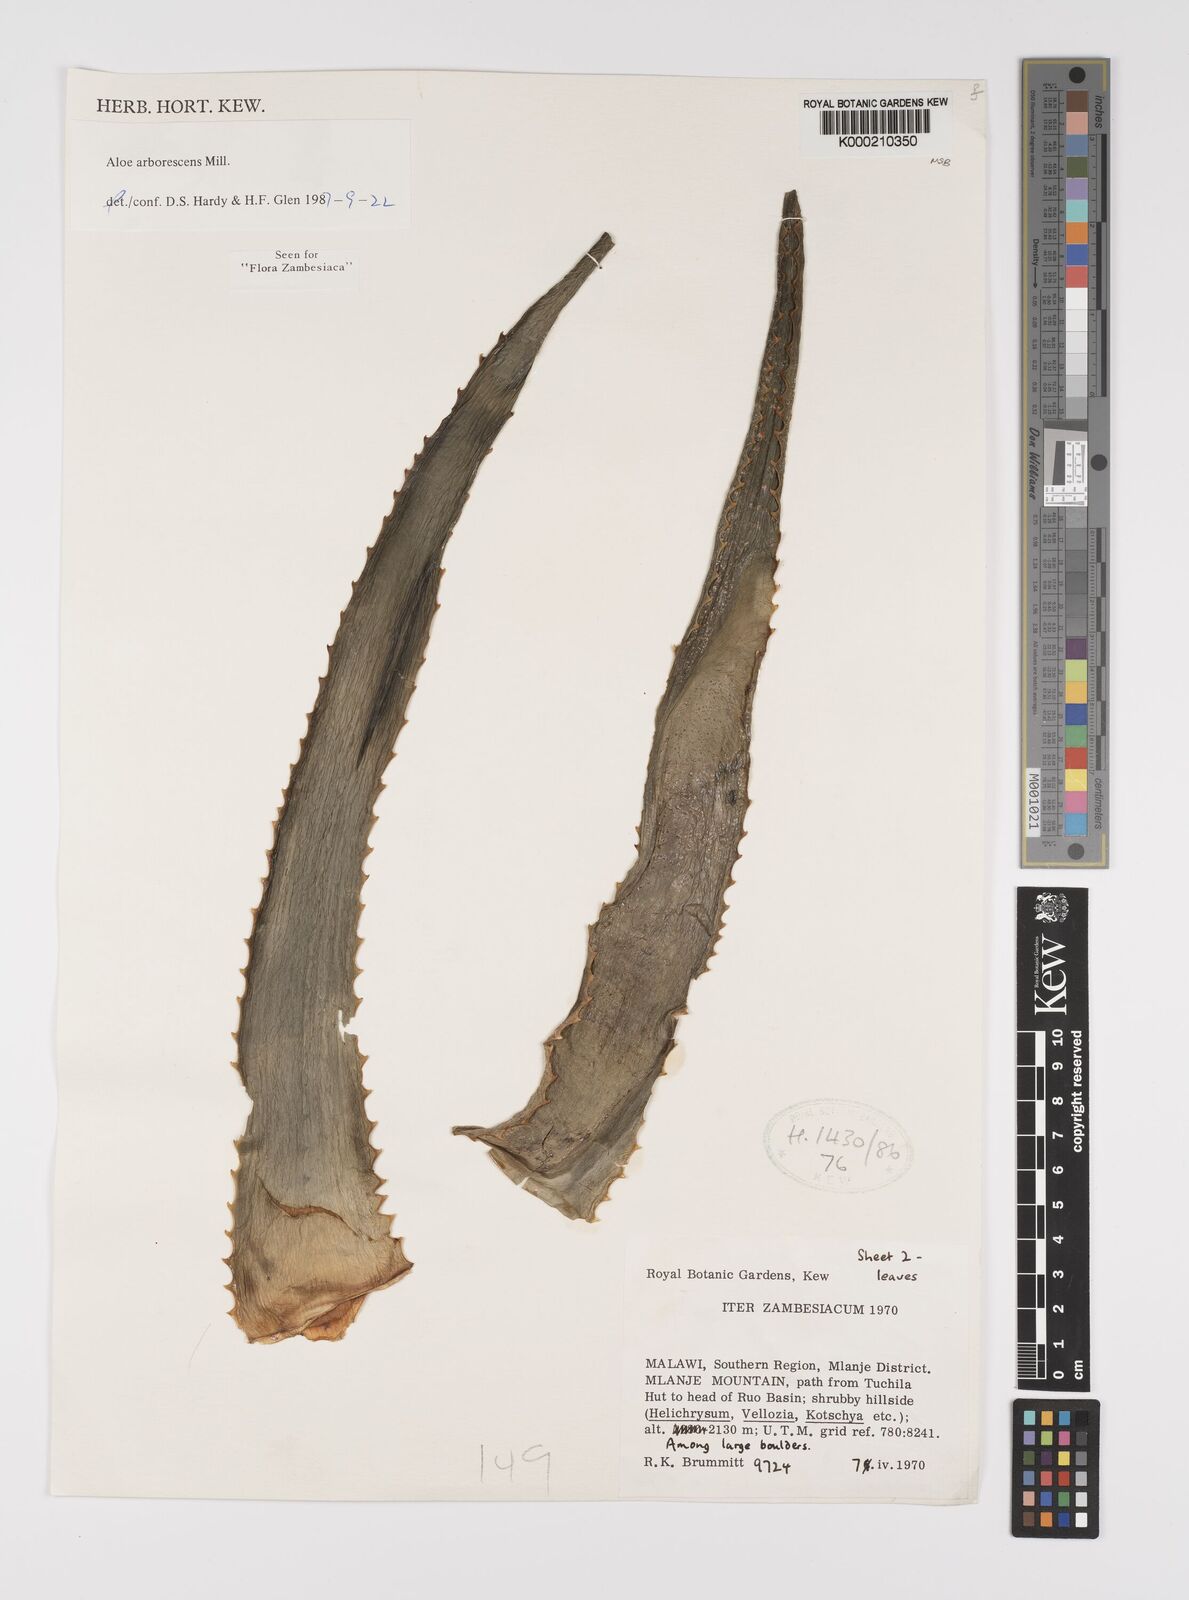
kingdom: Plantae
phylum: Tracheophyta
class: Liliopsida
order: Asparagales
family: Asphodelaceae
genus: Aloe
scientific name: Aloe arborescens
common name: Candelabra aloe
